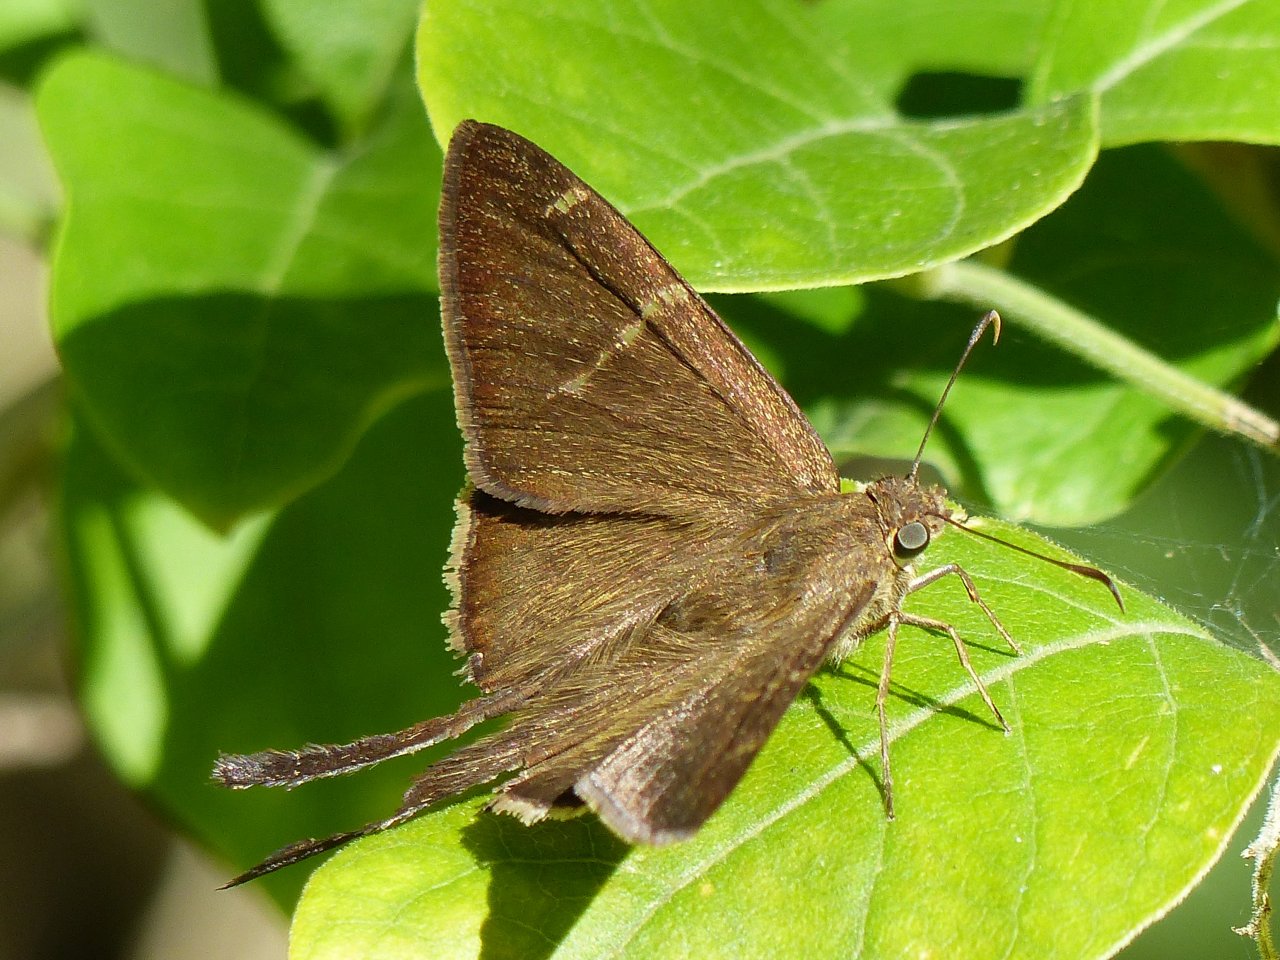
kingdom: Animalia
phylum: Arthropoda
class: Insecta
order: Lepidoptera
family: Hesperiidae
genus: Urbanus
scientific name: Urbanus procne
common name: Brown Longtail
